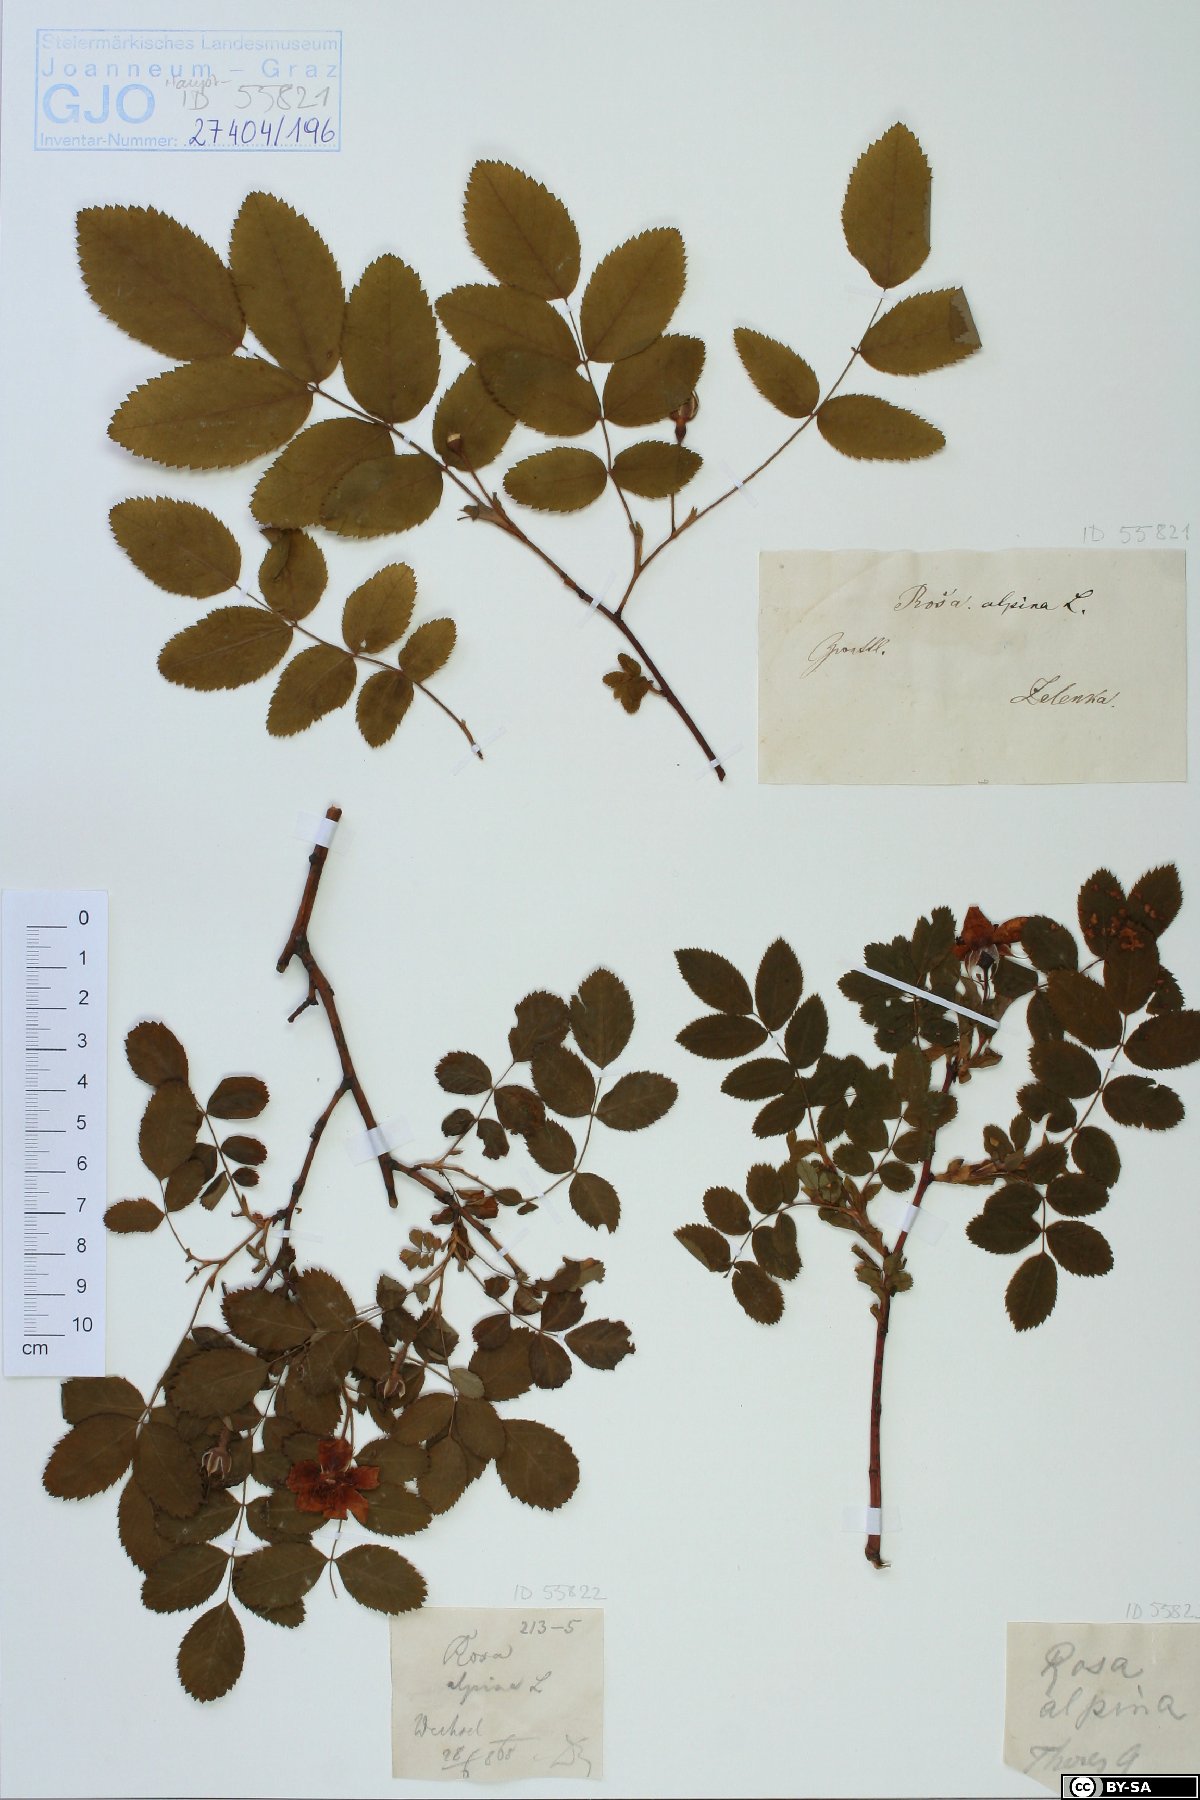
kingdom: Plantae
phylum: Tracheophyta
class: Magnoliopsida
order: Rosales
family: Rosaceae
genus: Rosa
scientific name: Rosa pendulina
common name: Alpine rose
